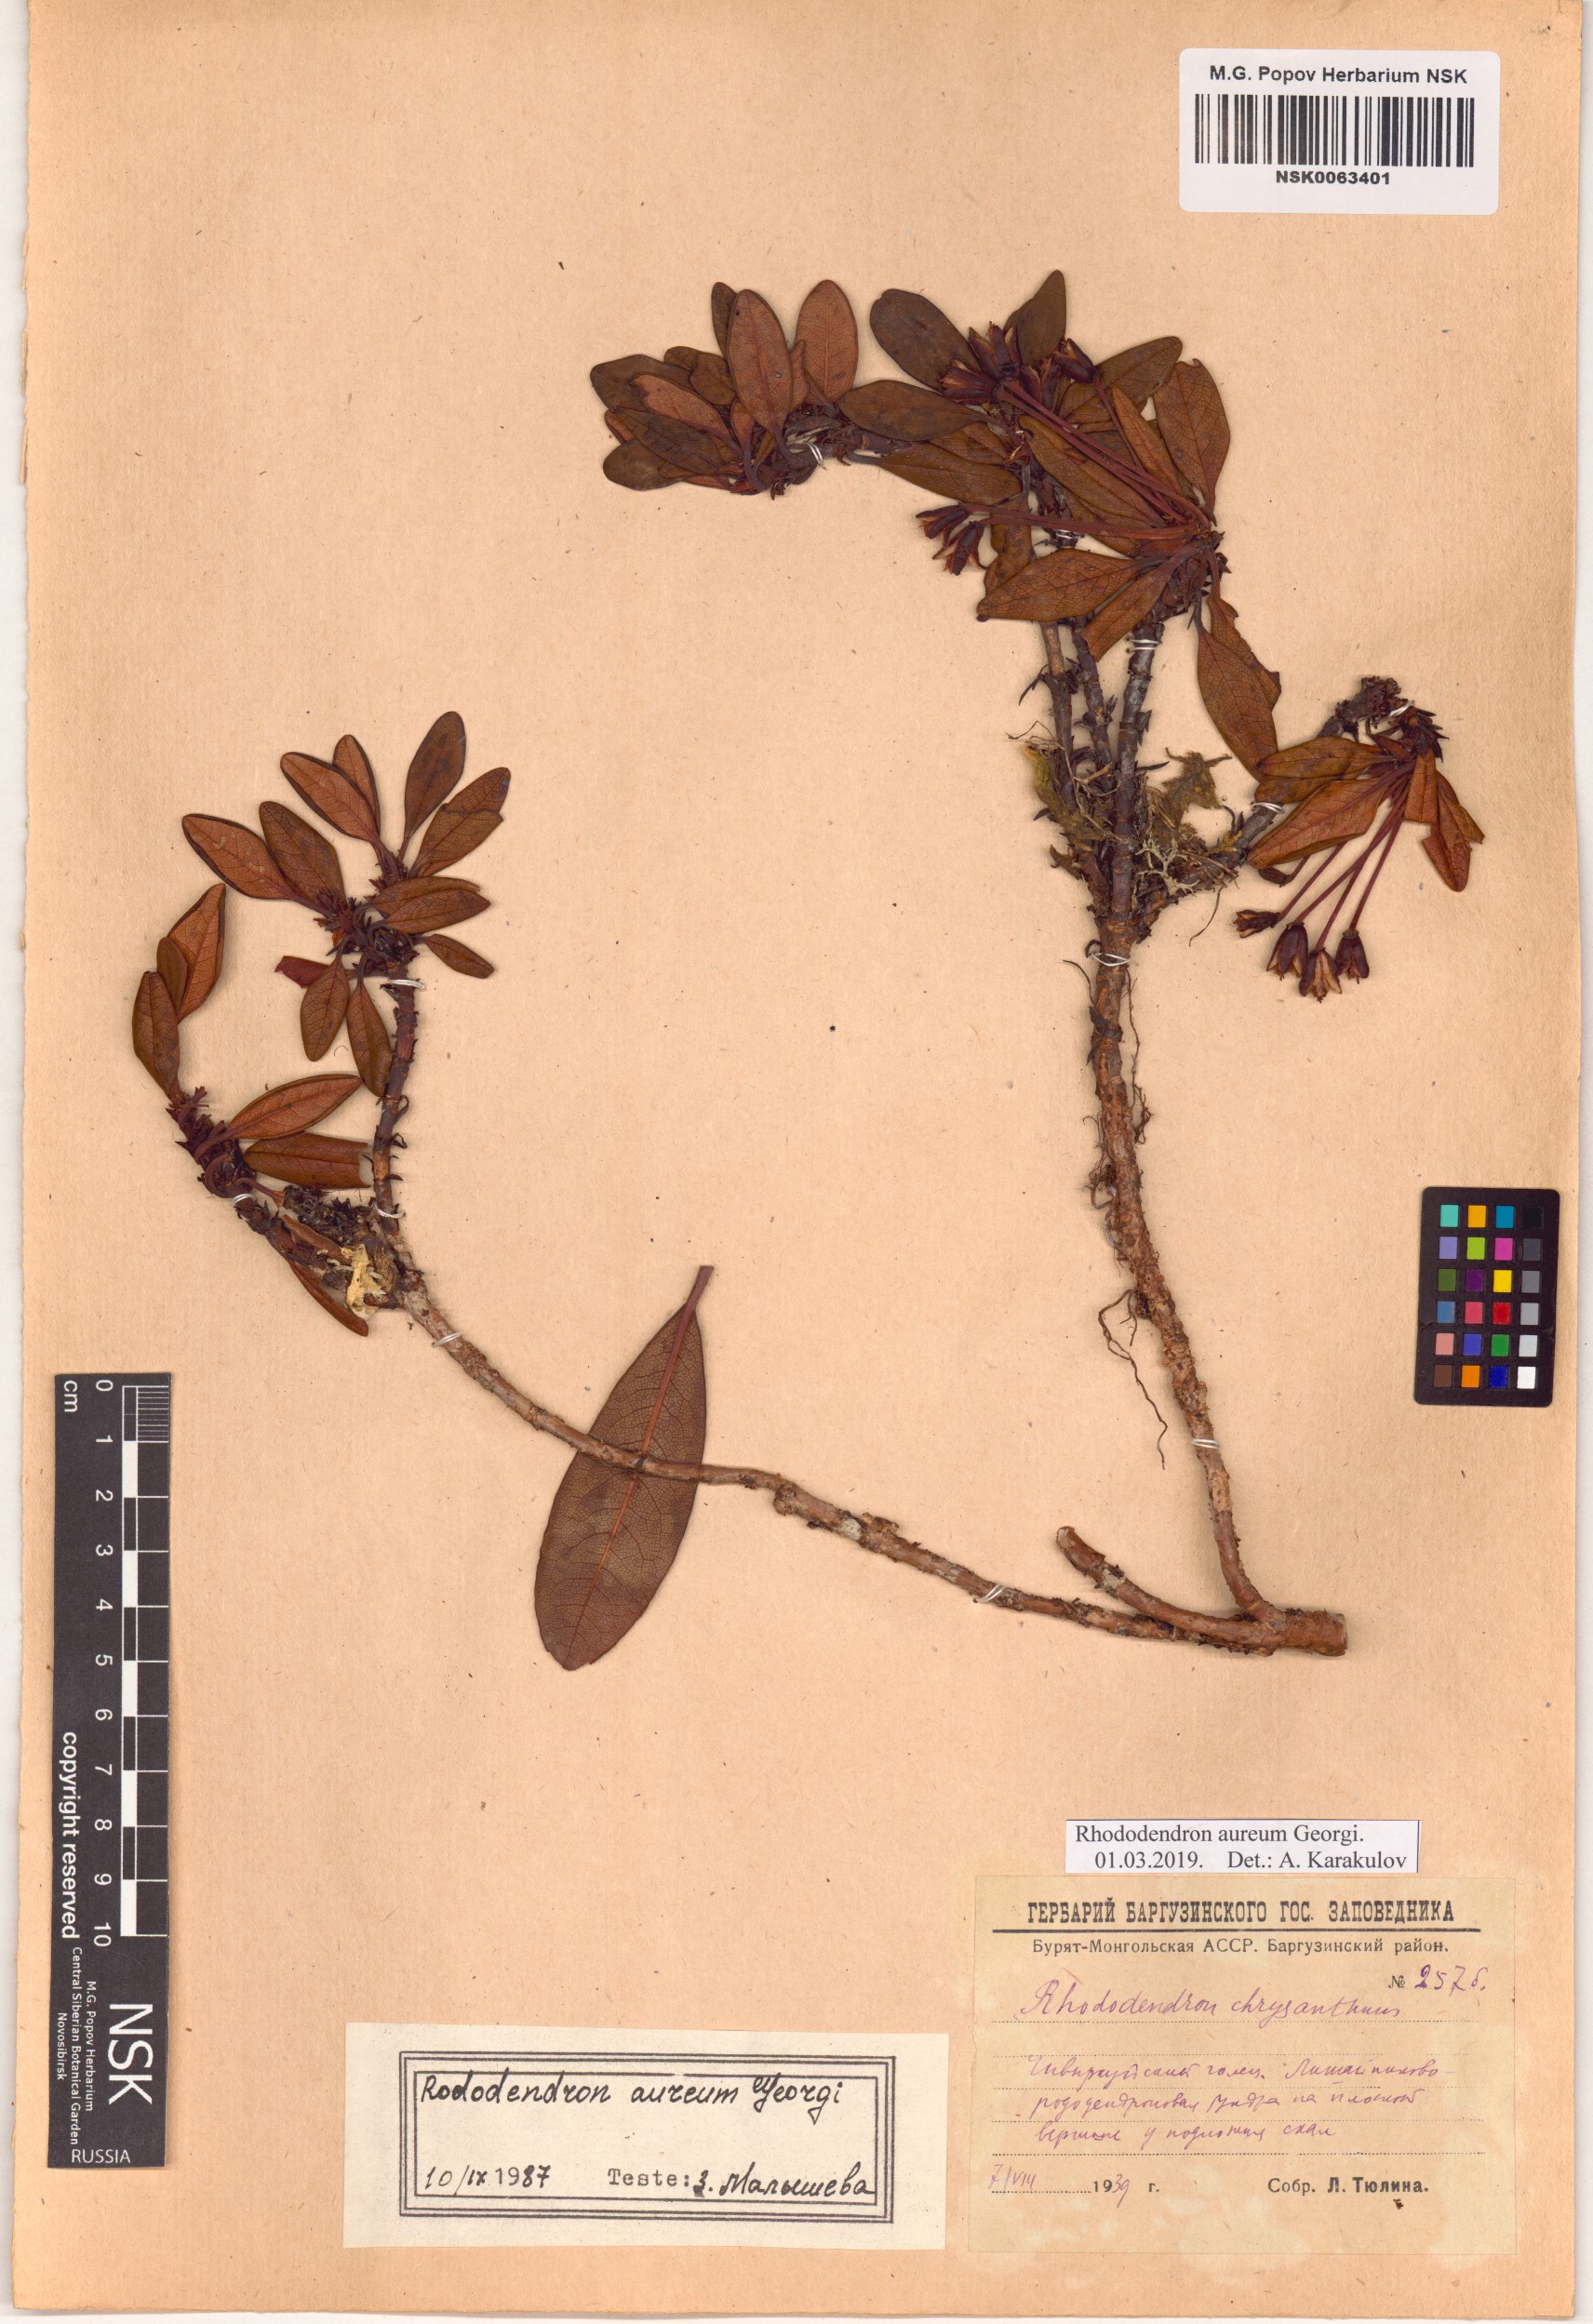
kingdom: Plantae
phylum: Tracheophyta
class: Magnoliopsida
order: Ericales
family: Ericaceae
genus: Rhododendron
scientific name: Rhododendron aureum
